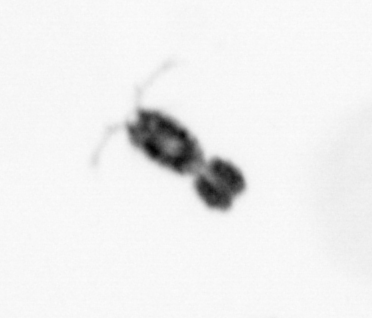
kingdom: Animalia
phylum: Arthropoda
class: Copepoda
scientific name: Copepoda
